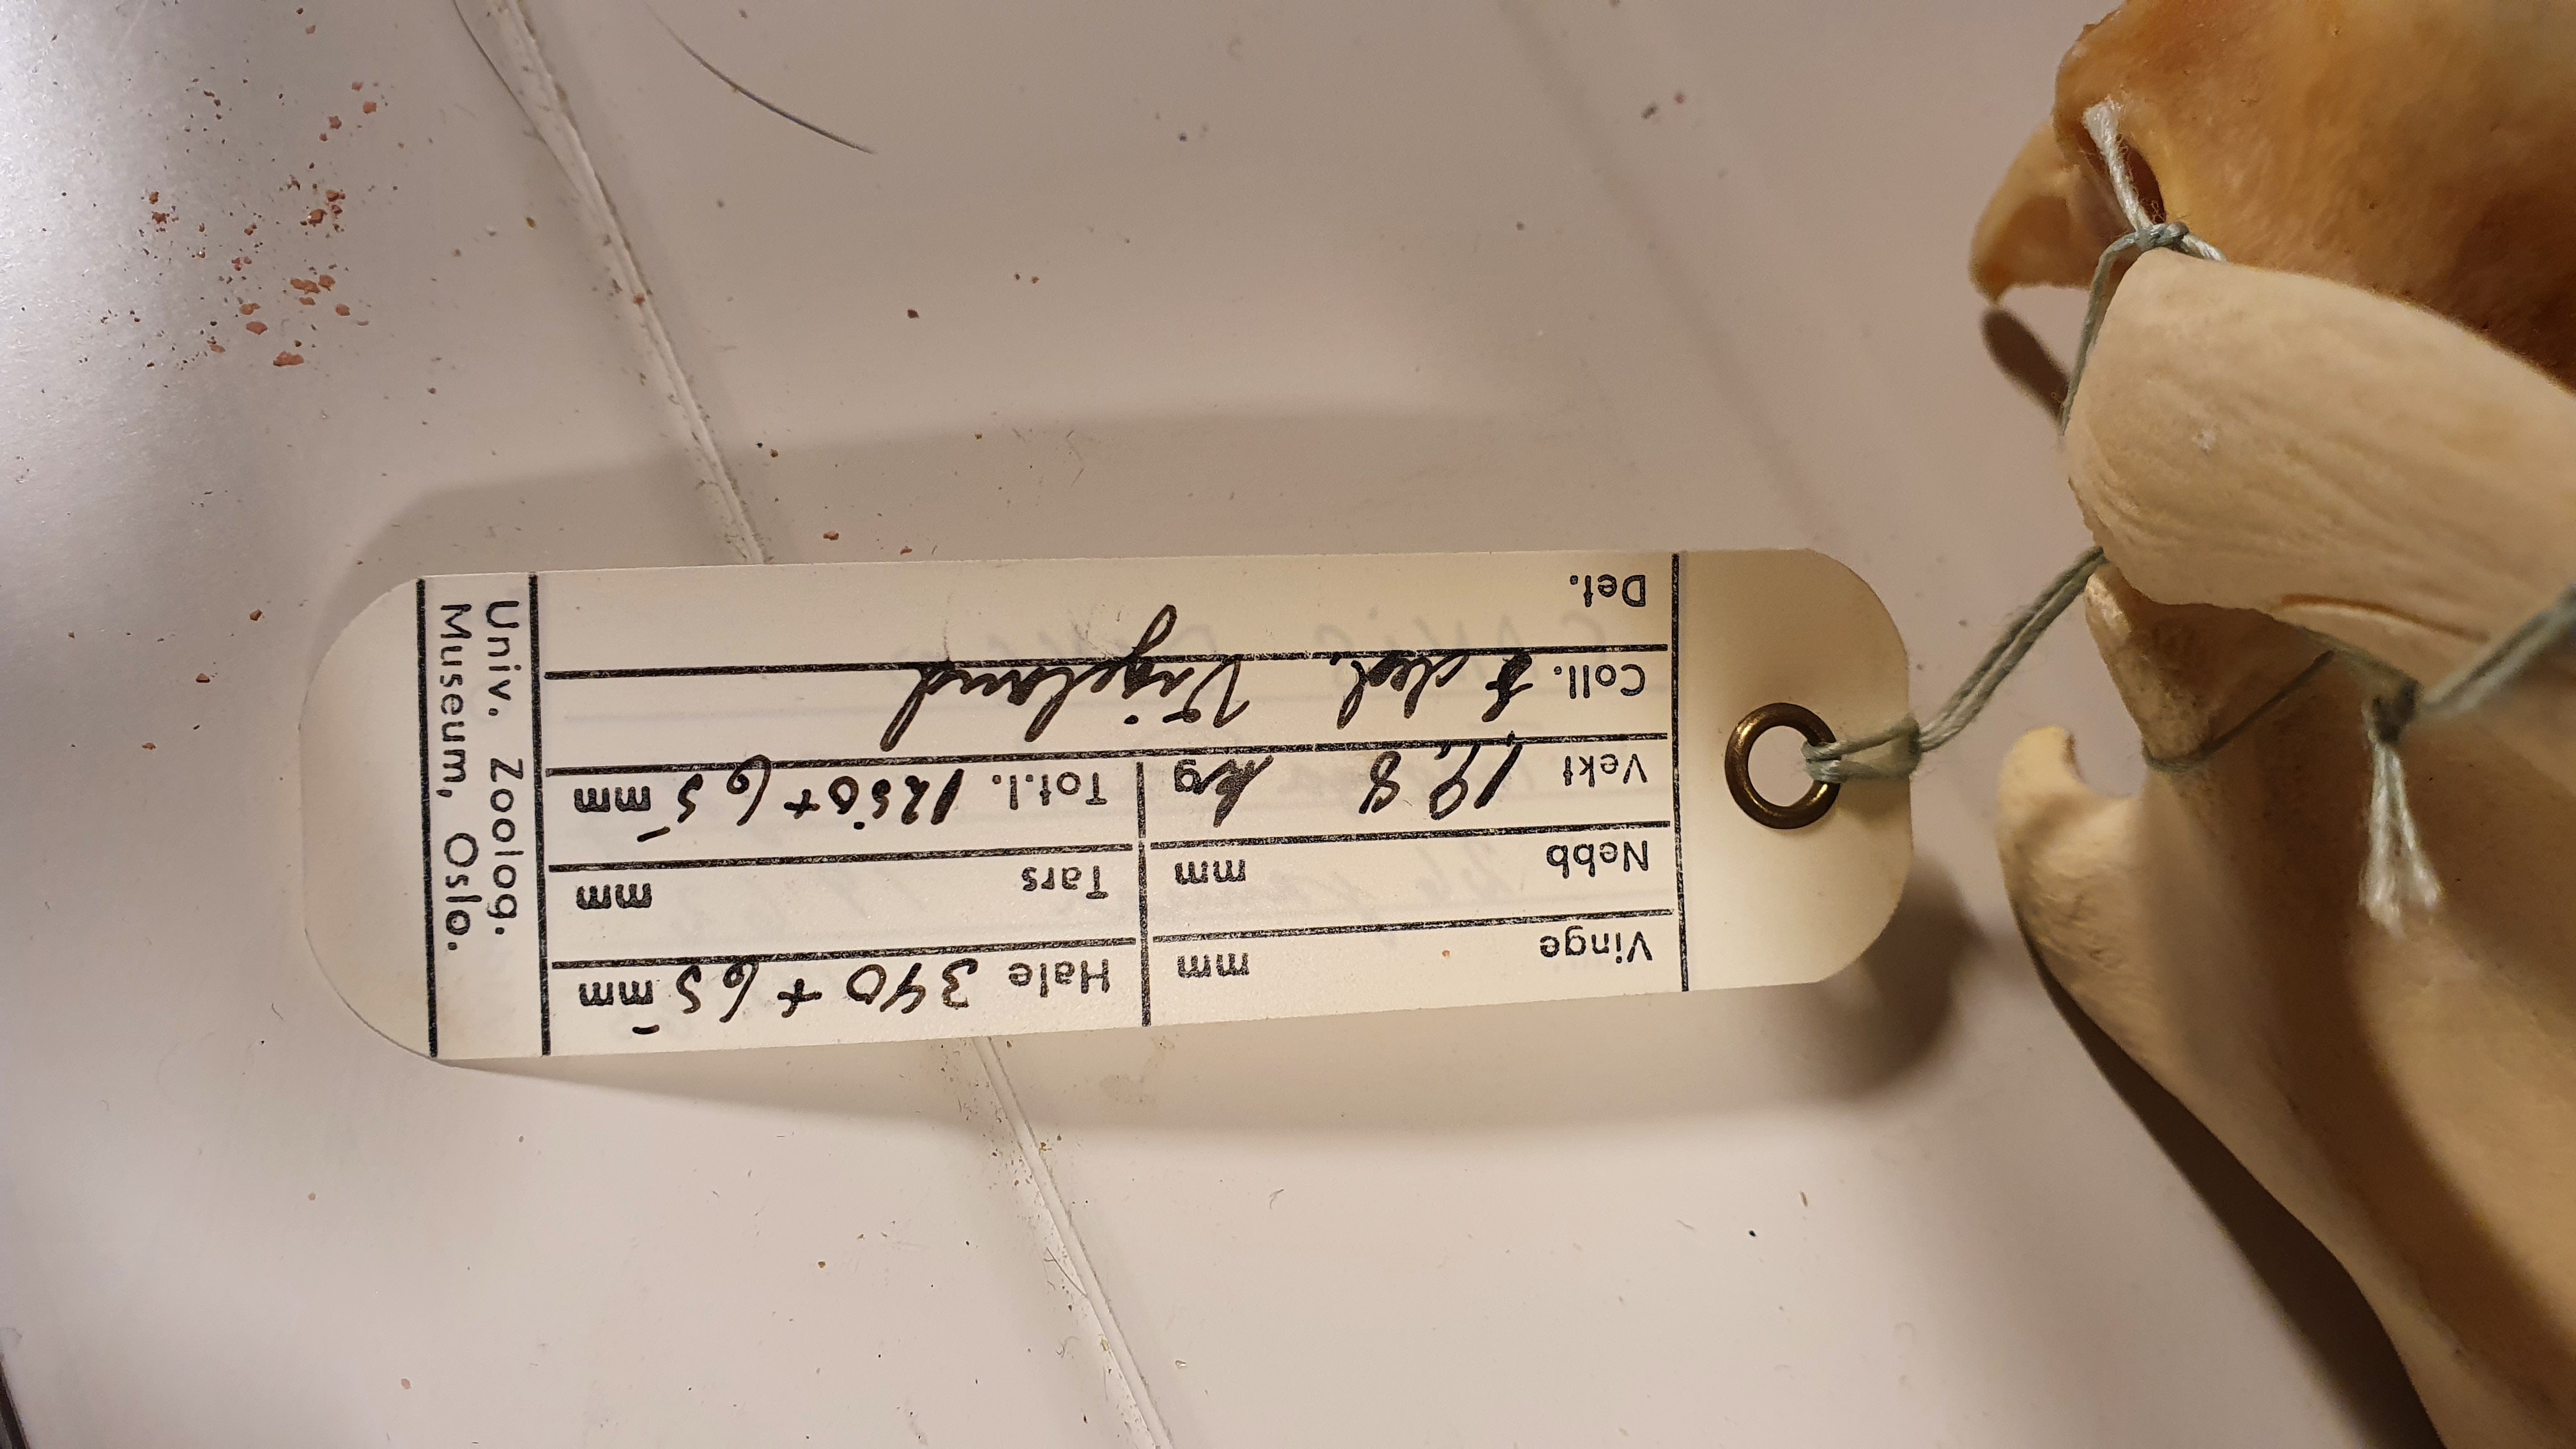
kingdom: Animalia
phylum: Chordata
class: Mammalia
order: Carnivora
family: Canidae
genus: Canis
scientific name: Canis lupus
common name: Gray wolf
